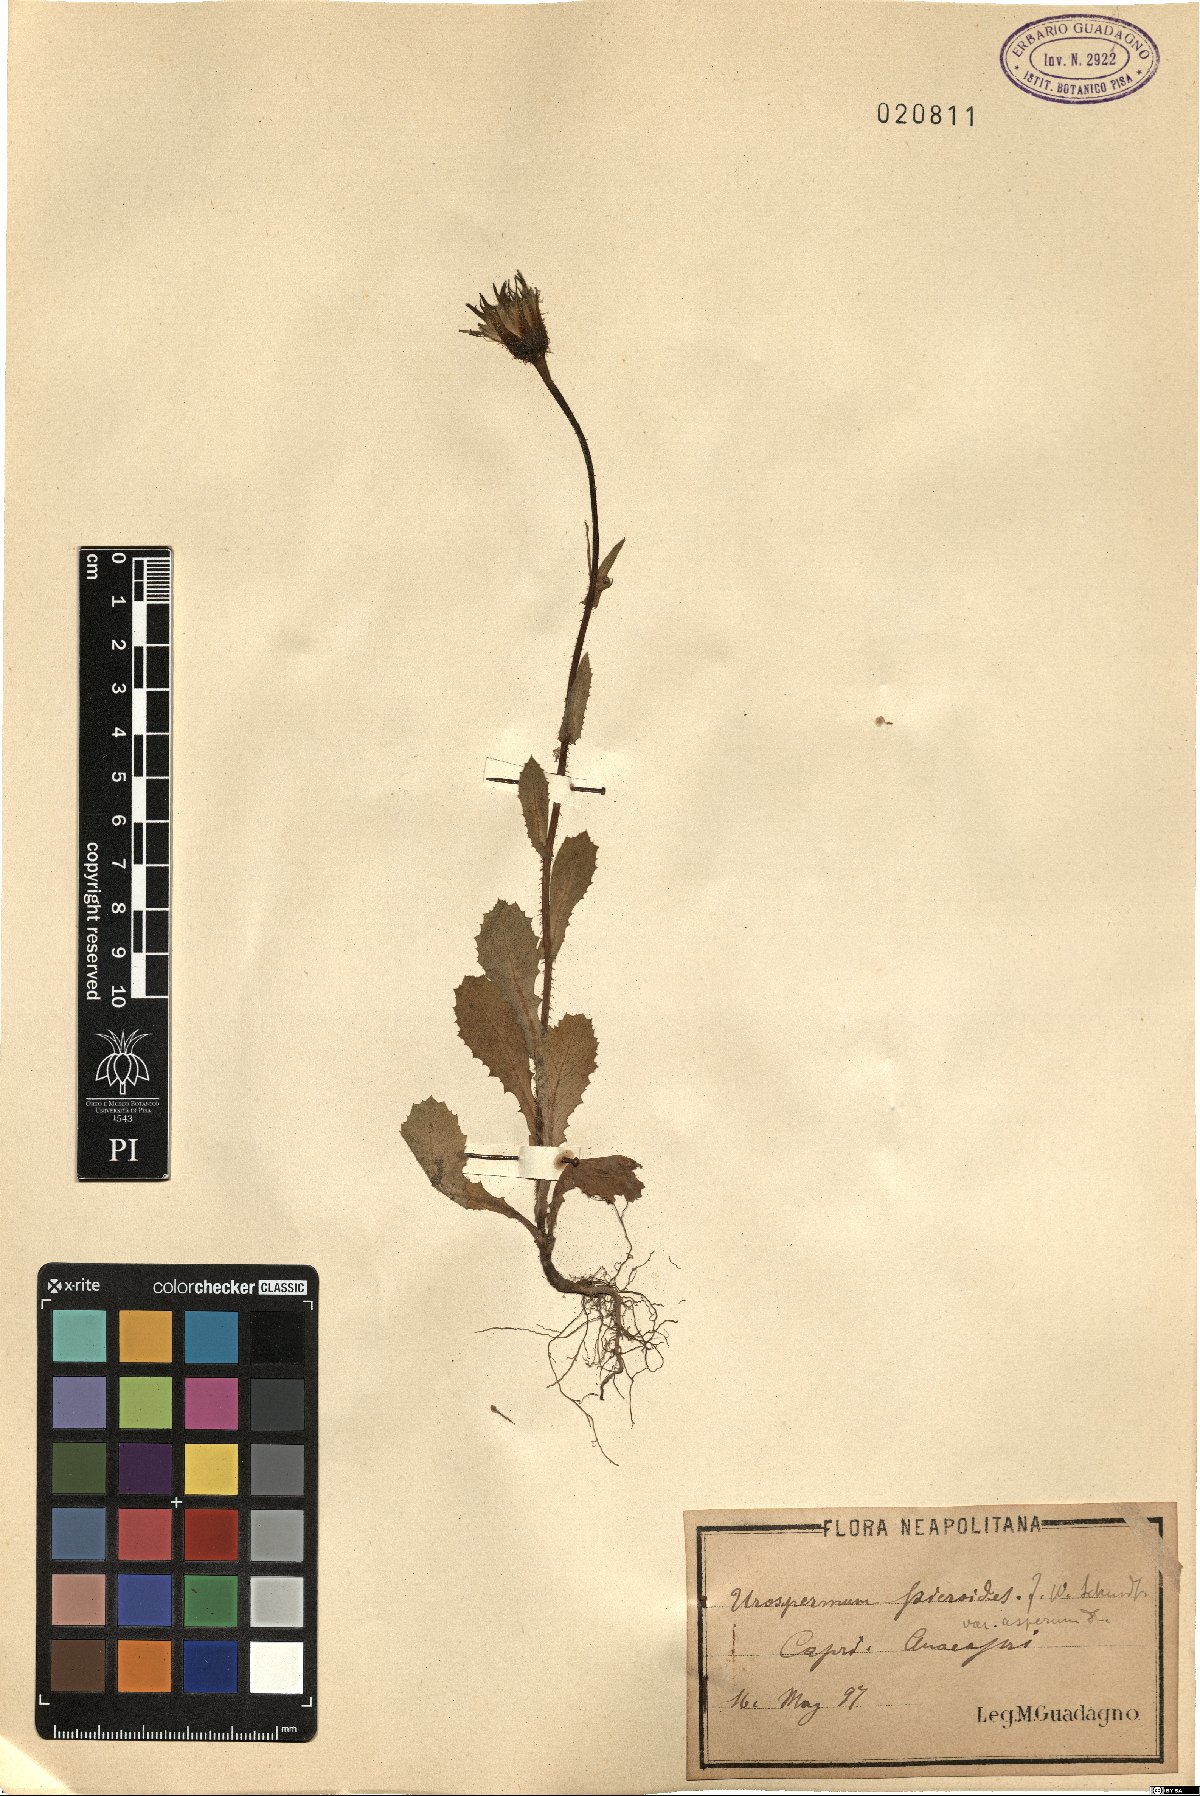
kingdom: Plantae
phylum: Tracheophyta
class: Magnoliopsida
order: Asterales
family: Asteraceae
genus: Urospermum
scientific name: Urospermum picroides
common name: False hawkbit
